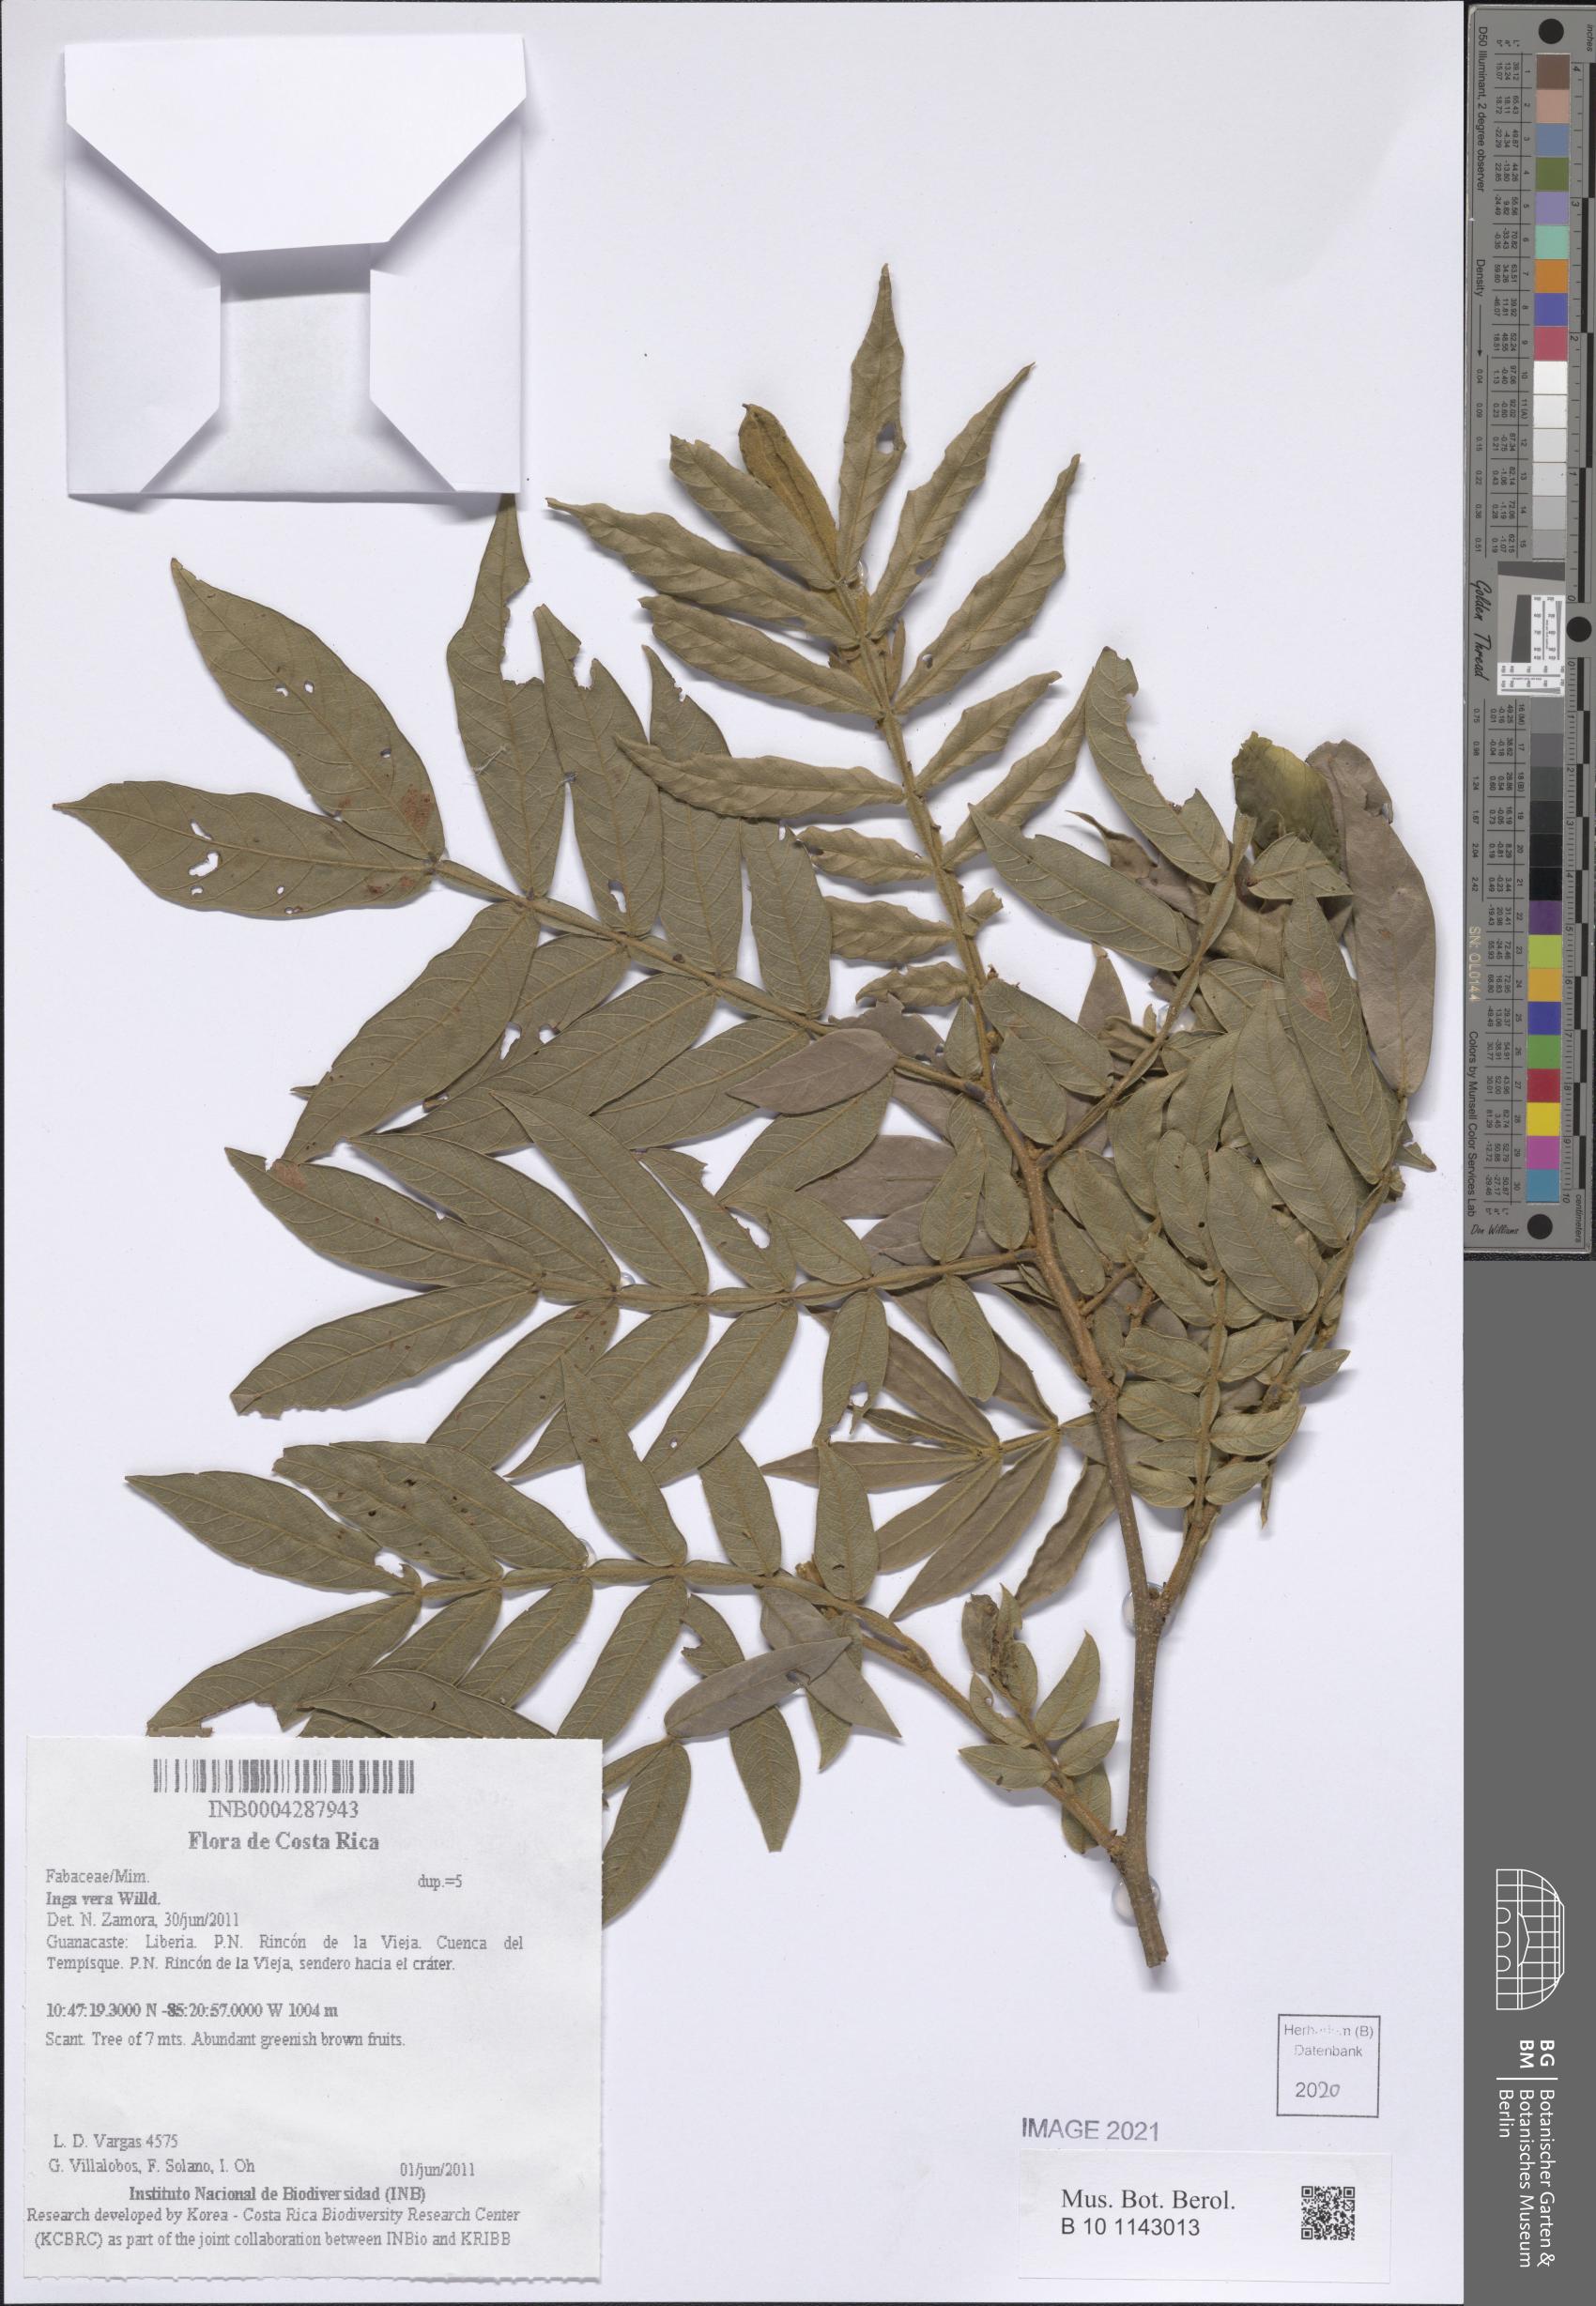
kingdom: Plantae
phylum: Tracheophyta
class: Magnoliopsida
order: Fabales
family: Fabaceae
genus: Inga
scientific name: Inga vera
